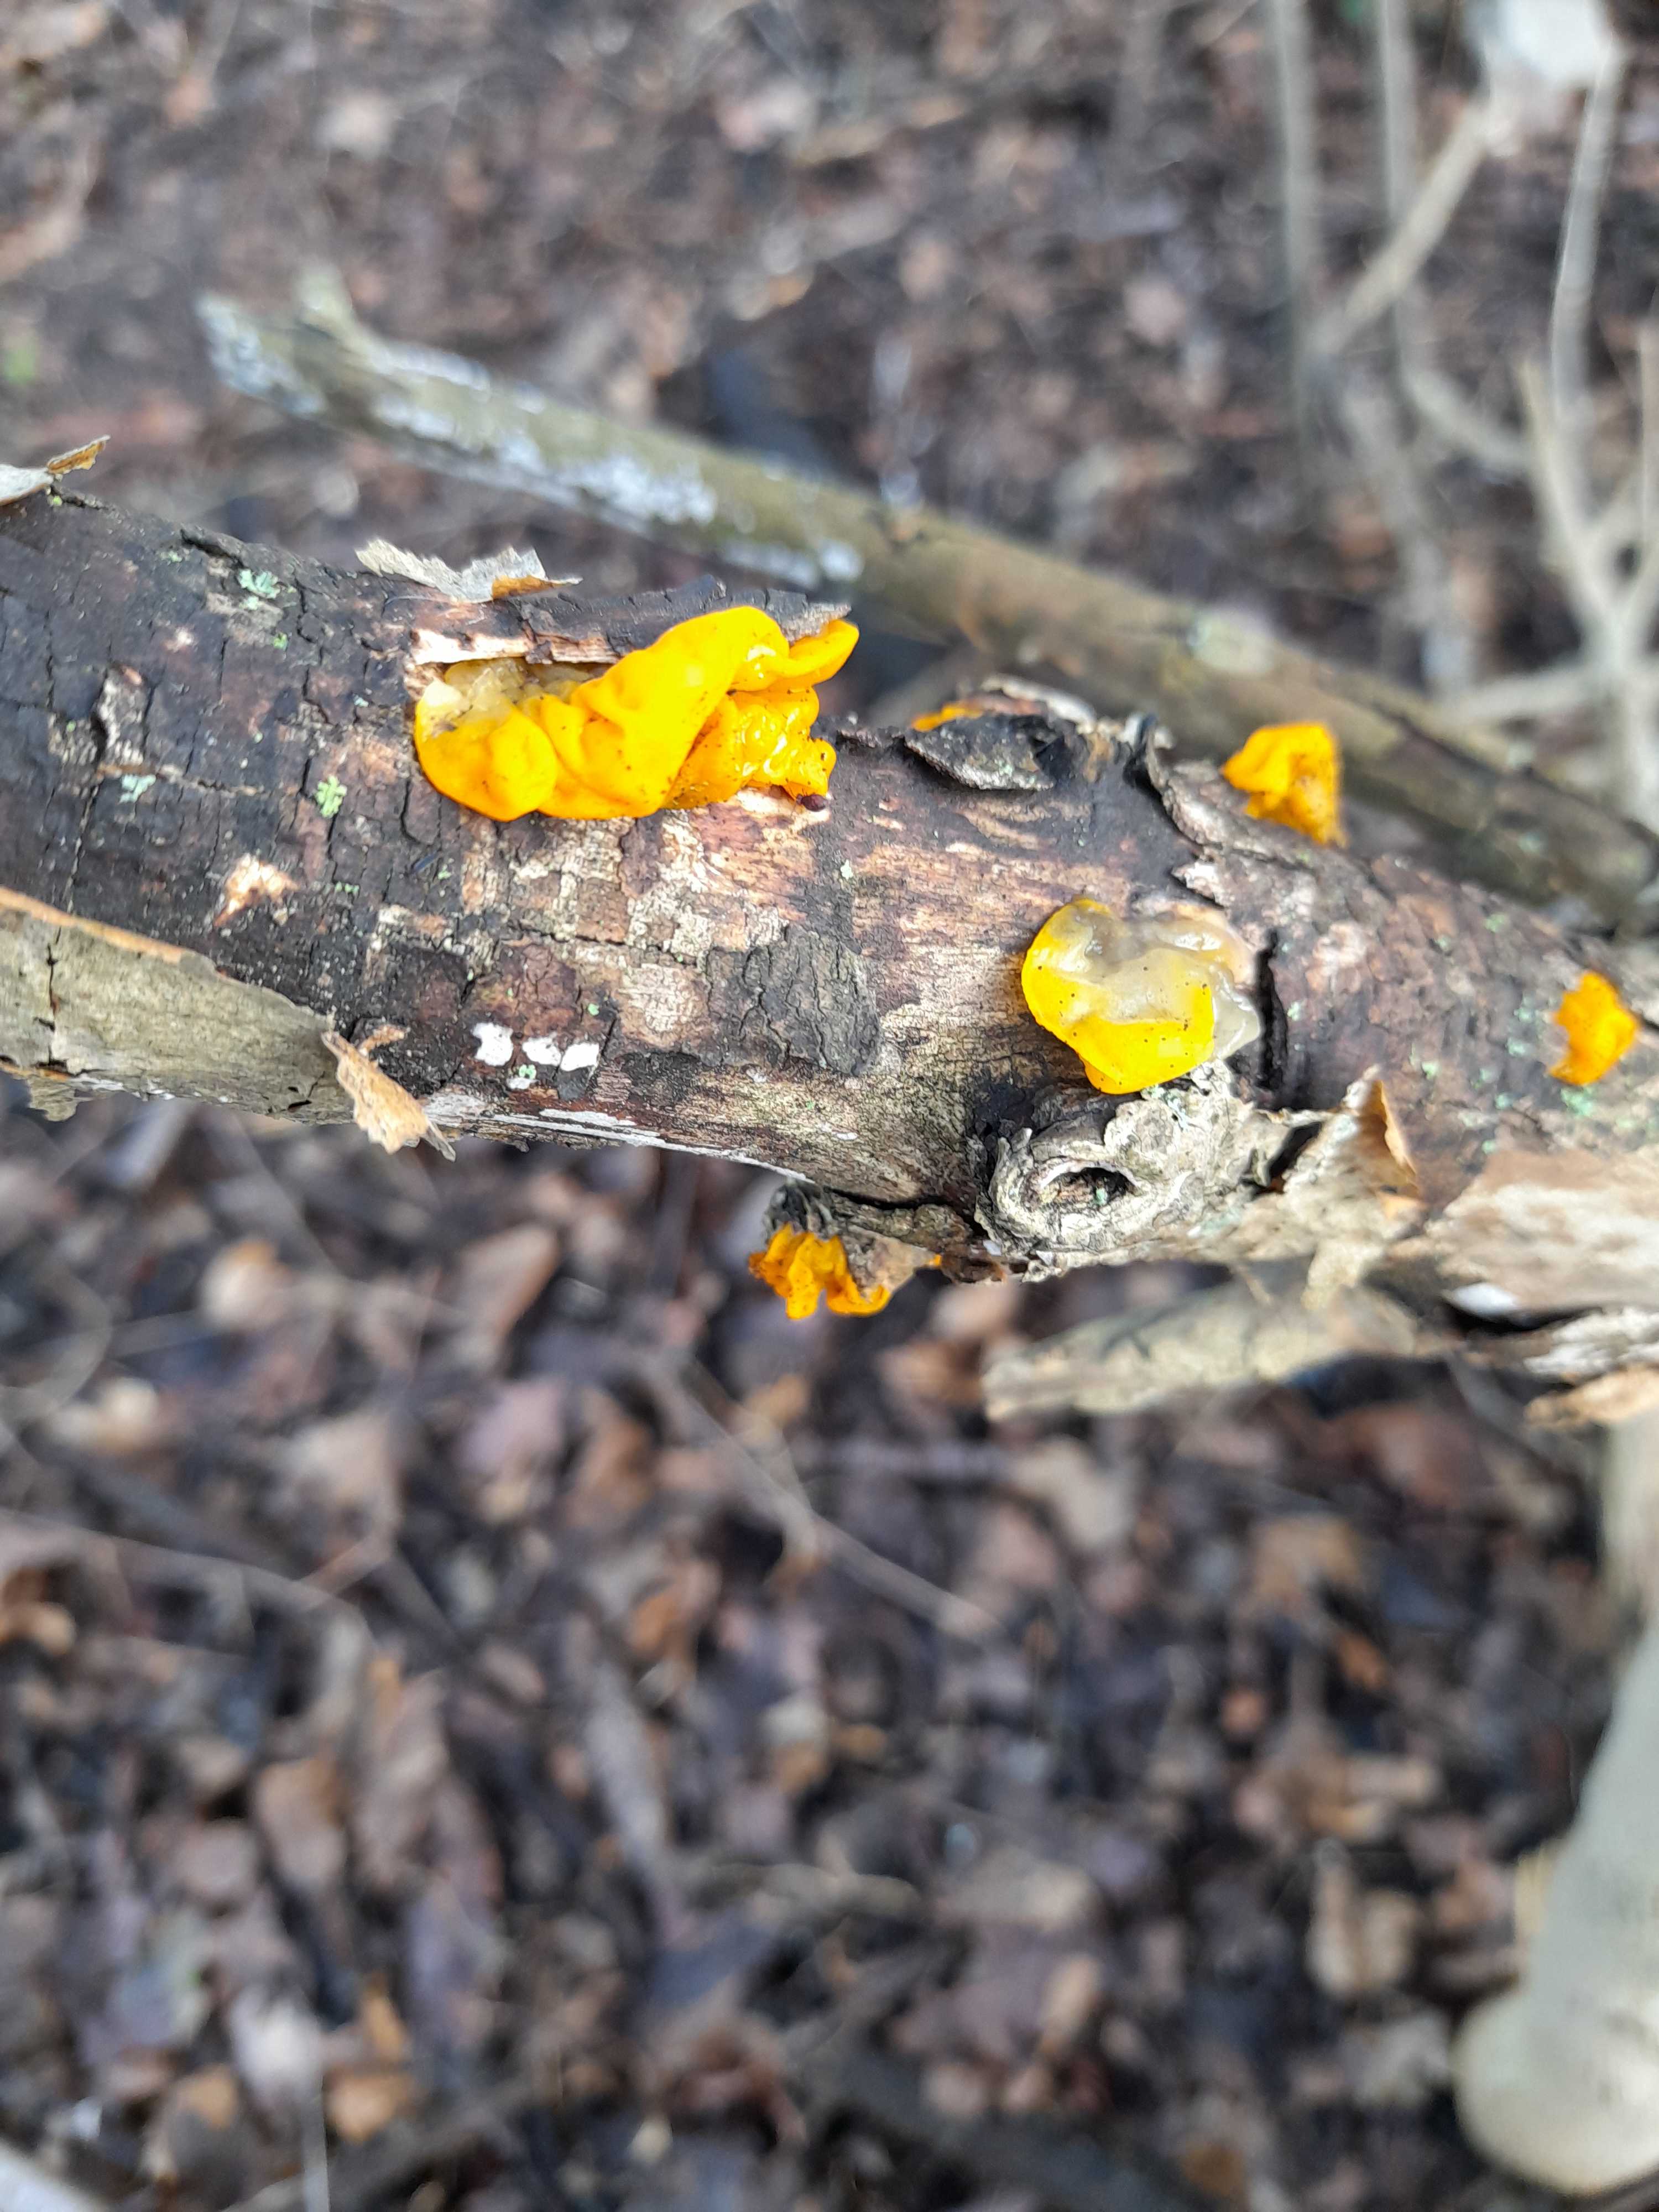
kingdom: Fungi
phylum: Basidiomycota
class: Tremellomycetes
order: Tremellales
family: Tremellaceae
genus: Tremella
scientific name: Tremella mesenterica
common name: gul bævresvamp
